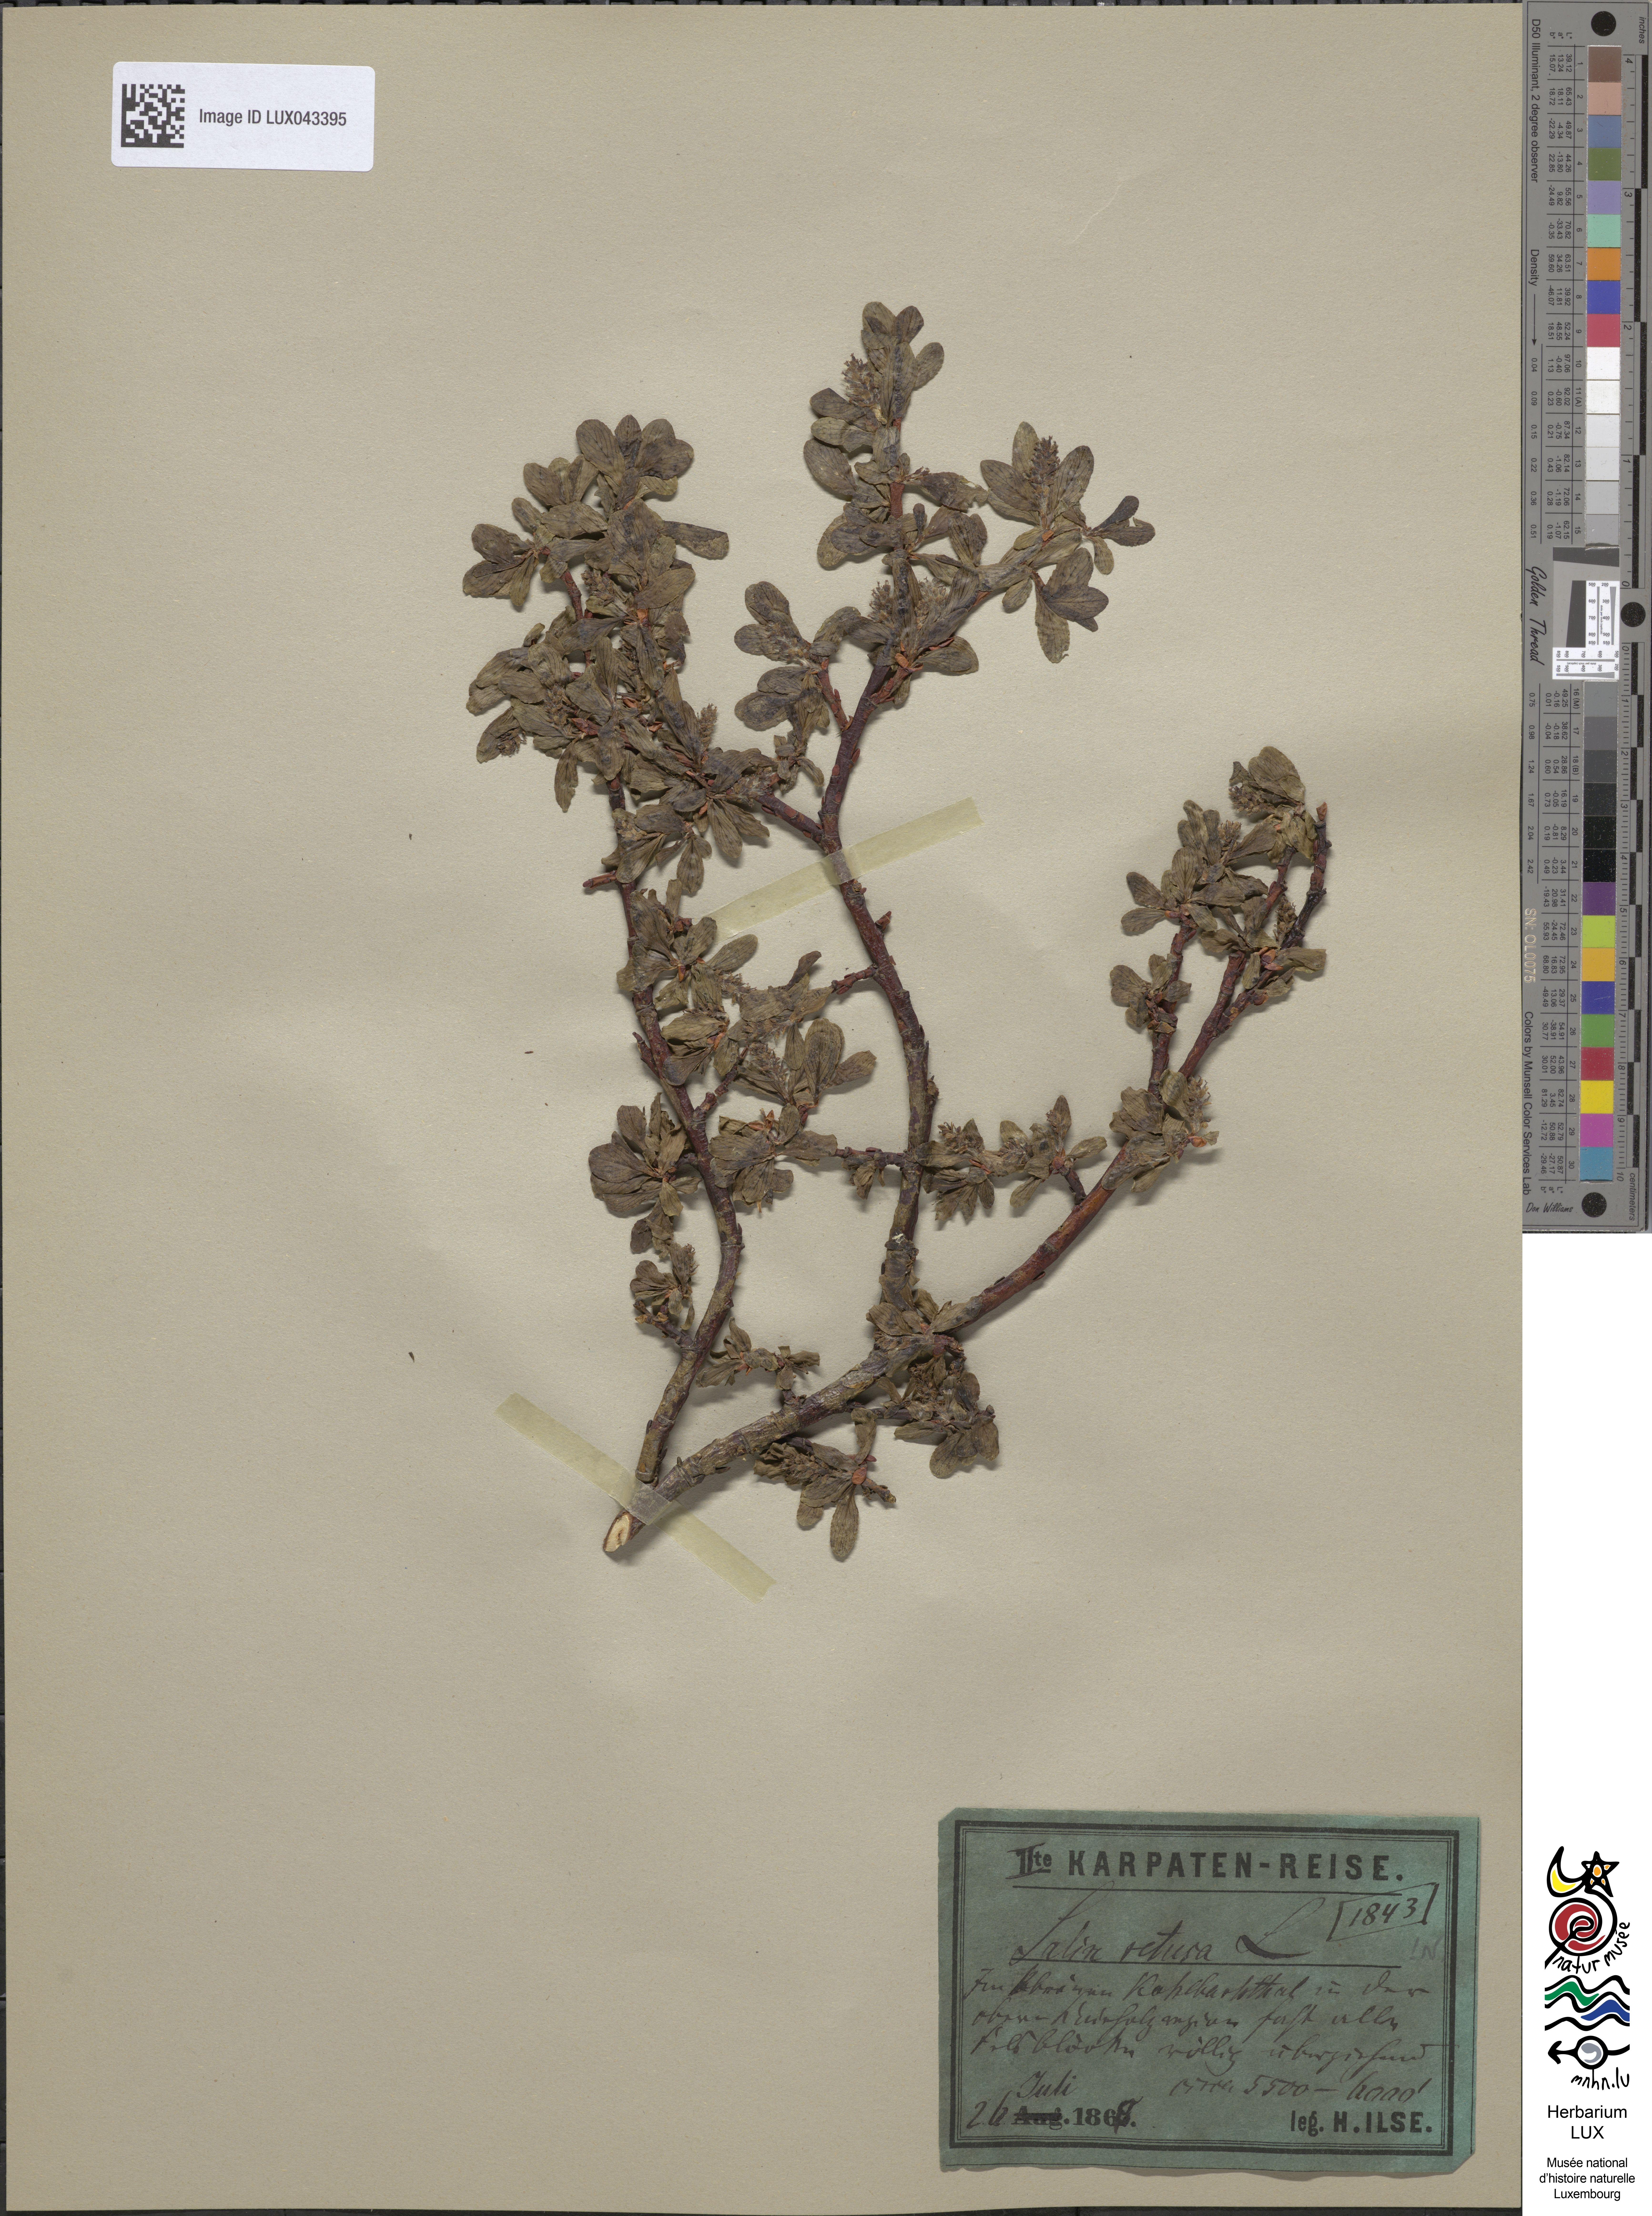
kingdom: Plantae
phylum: Tracheophyta
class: Magnoliopsida
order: Malpighiales
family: Salicaceae
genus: Salix
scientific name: Salix retusa
